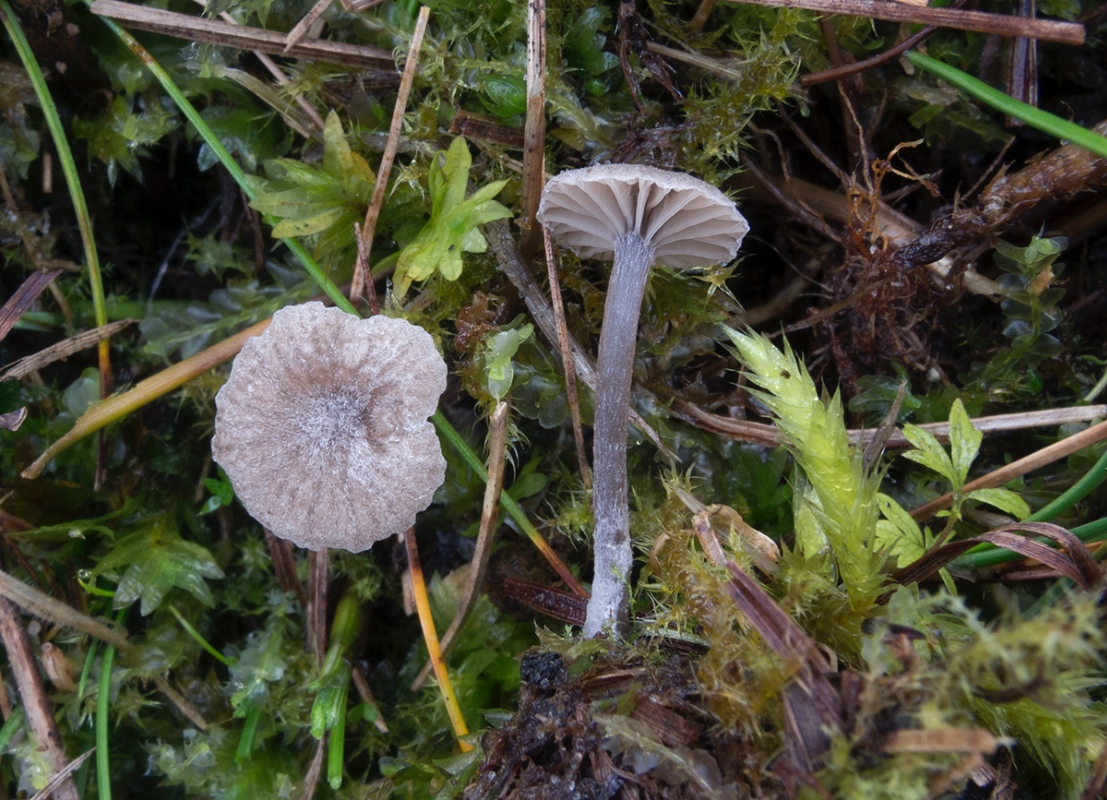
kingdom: Fungi
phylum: Basidiomycota
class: Agaricomycetes
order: Agaricales
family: Tricholomataceae
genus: Omphalina
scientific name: Omphalina microsperma
